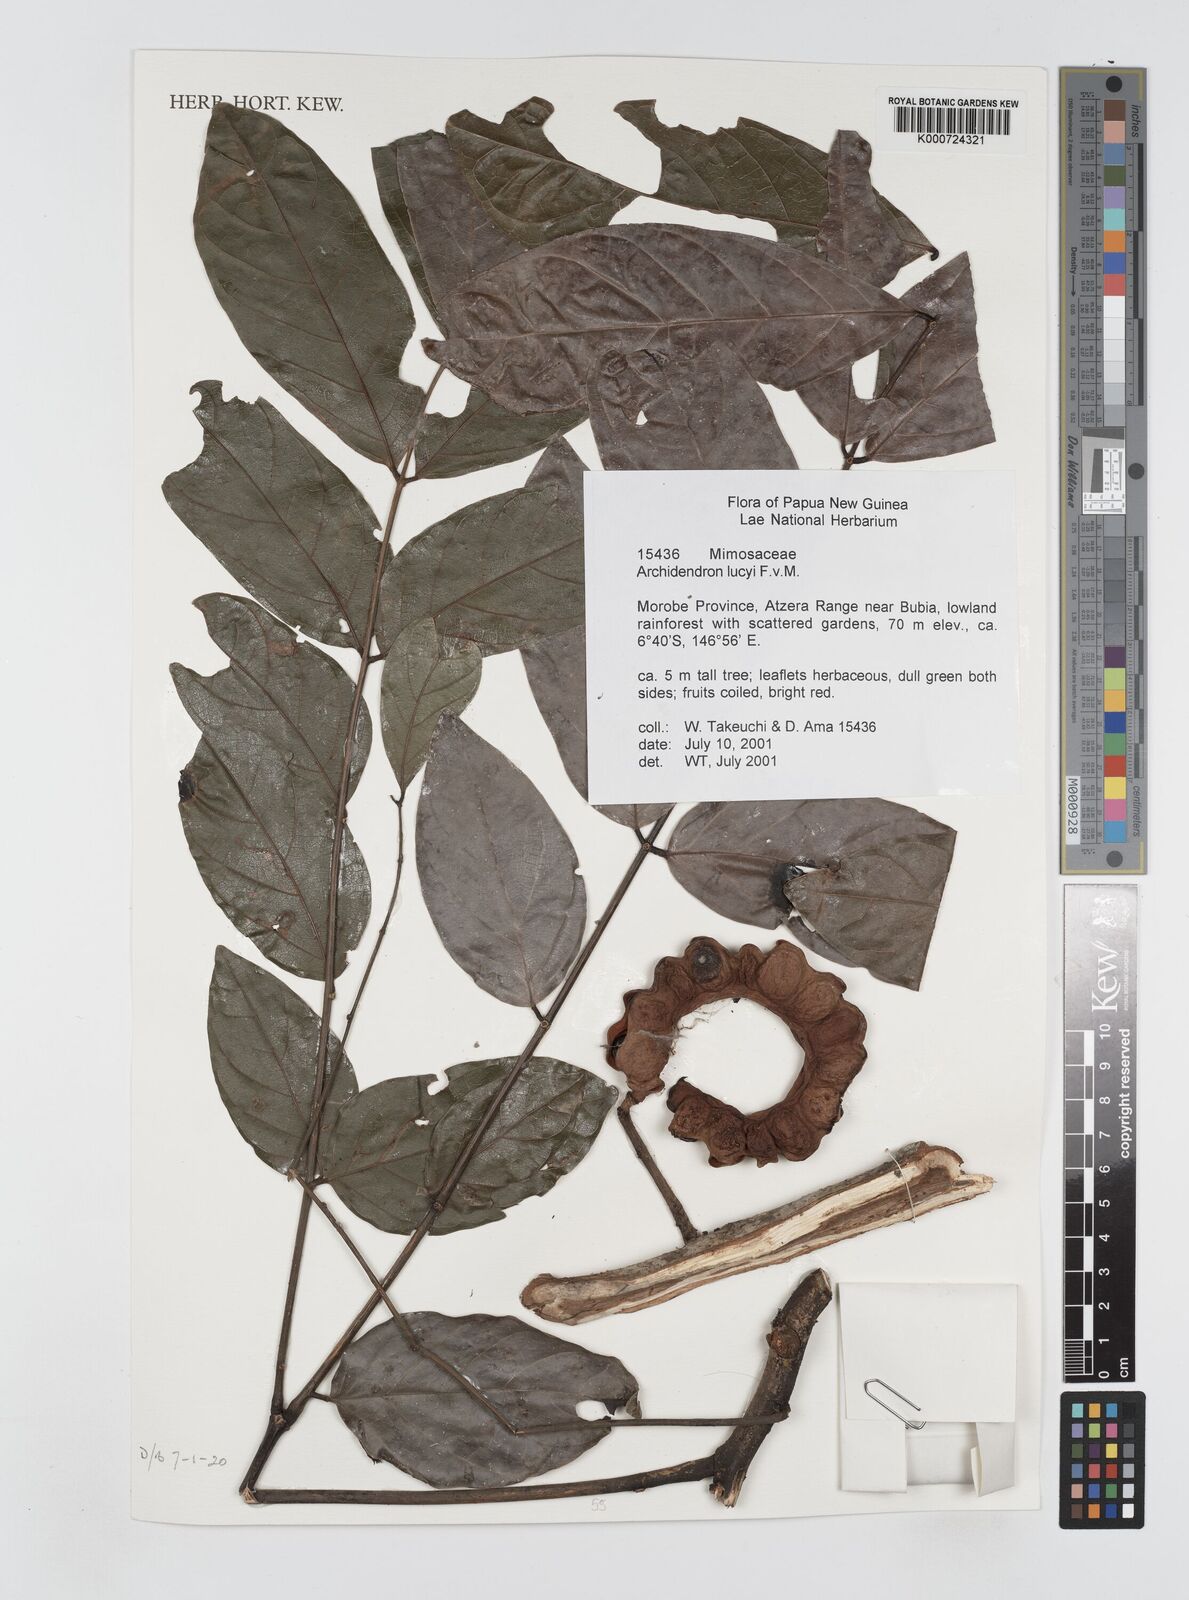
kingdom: Plantae
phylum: Tracheophyta
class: Magnoliopsida
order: Fabales
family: Fabaceae
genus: Archidendron
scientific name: Archidendron lucyi
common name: Scarlet bean
